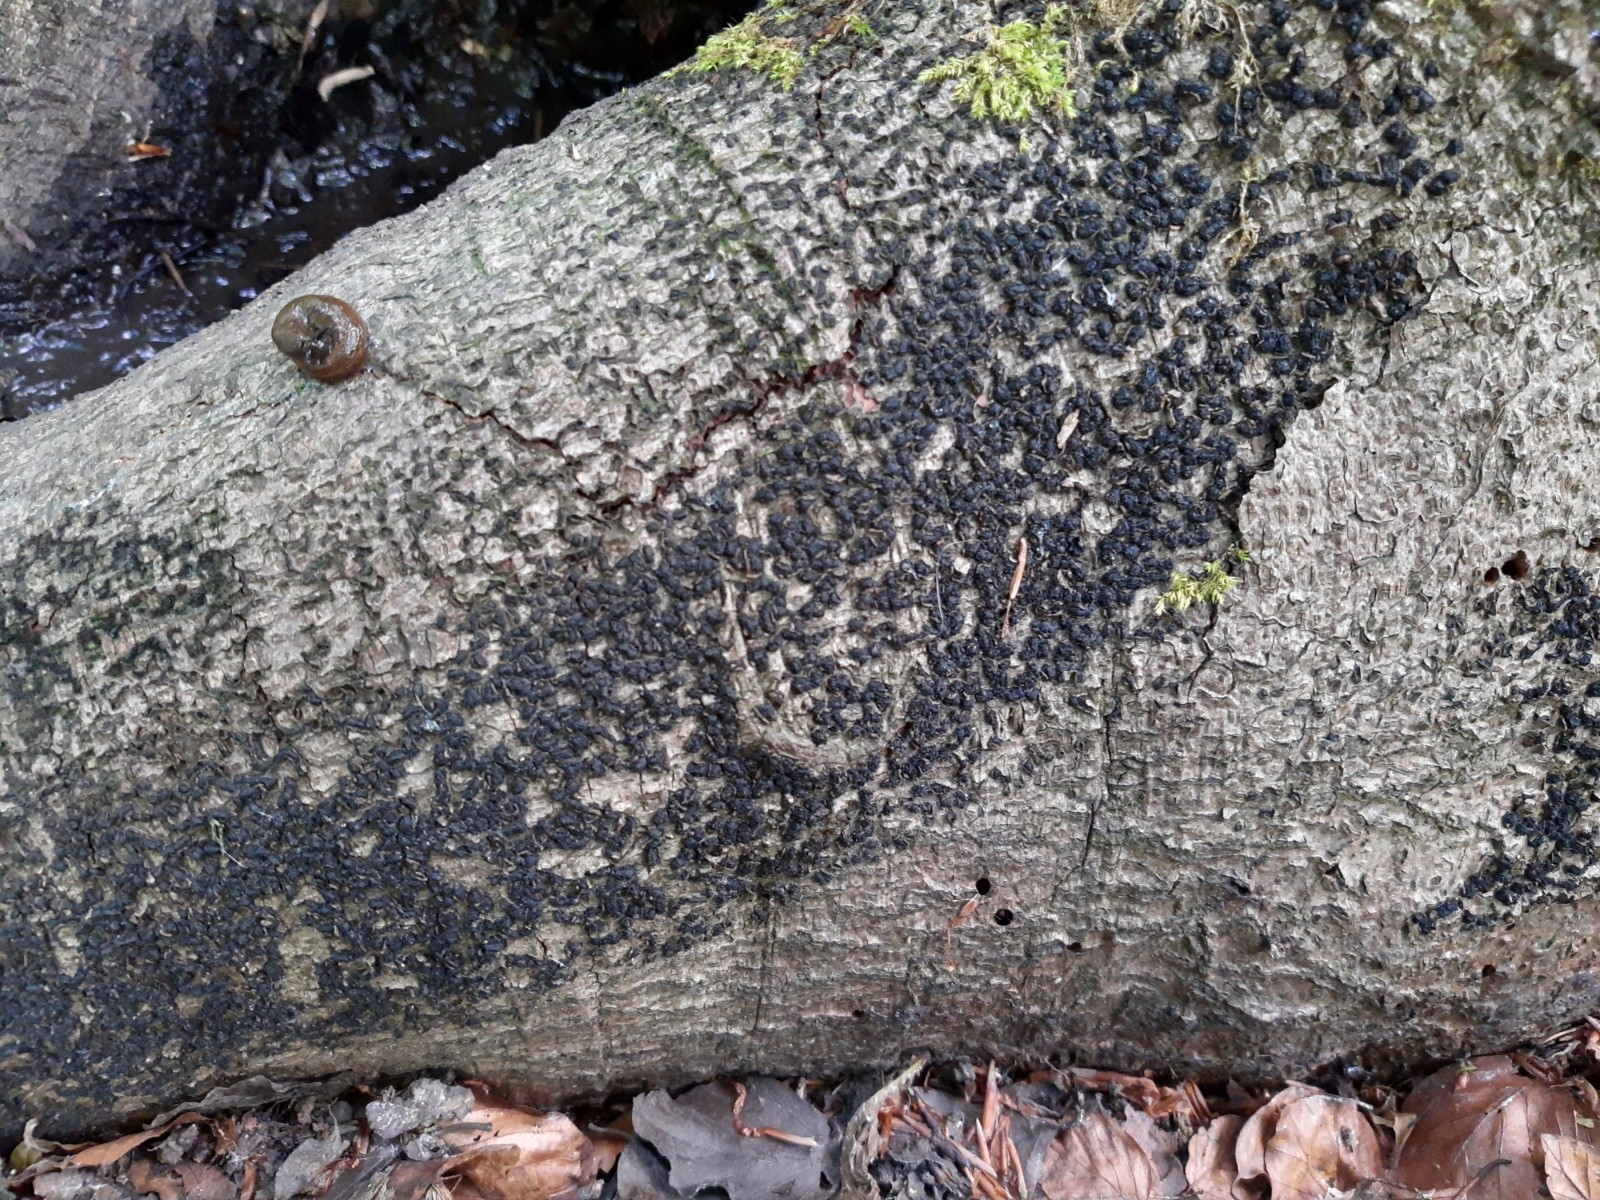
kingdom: Fungi
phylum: Ascomycota
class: Sordariomycetes
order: Xylariales
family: Melogrammataceae
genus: Melogramma
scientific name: Melogramma spiniferum
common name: bøgefod-kulhals
